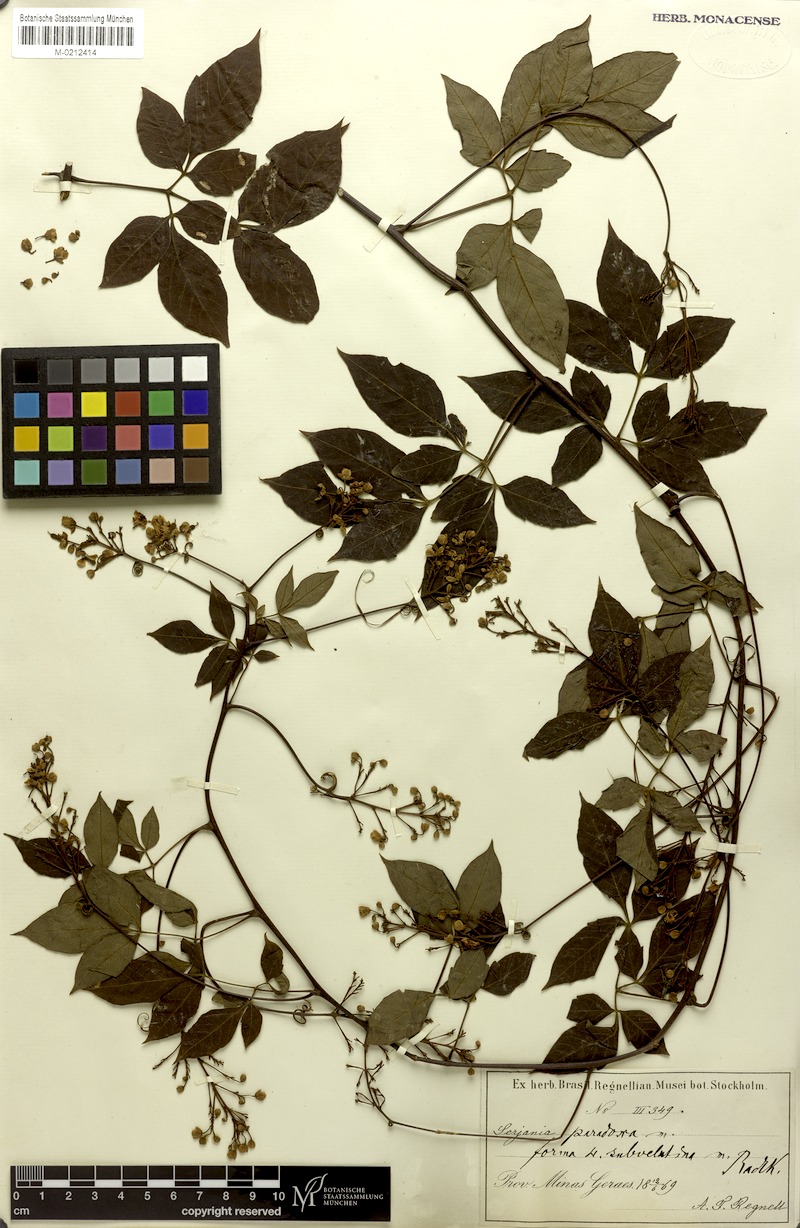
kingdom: Plantae
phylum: Tracheophyta
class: Magnoliopsida
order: Sapindales
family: Sapindaceae
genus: Serjania
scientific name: Serjania paradoxa
